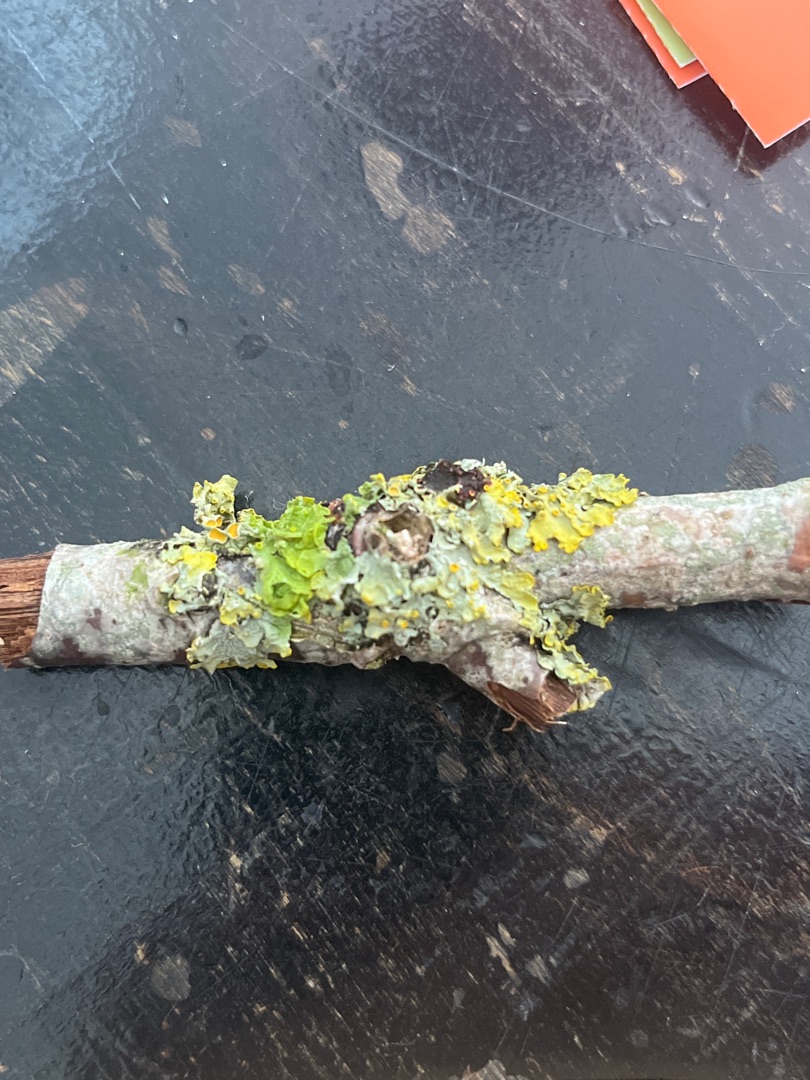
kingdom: Fungi
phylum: Ascomycota
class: Lecanoromycetes
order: Teloschistales
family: Teloschistaceae
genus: Xanthoria
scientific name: Xanthoria parietina
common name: Almindelig væggelav
